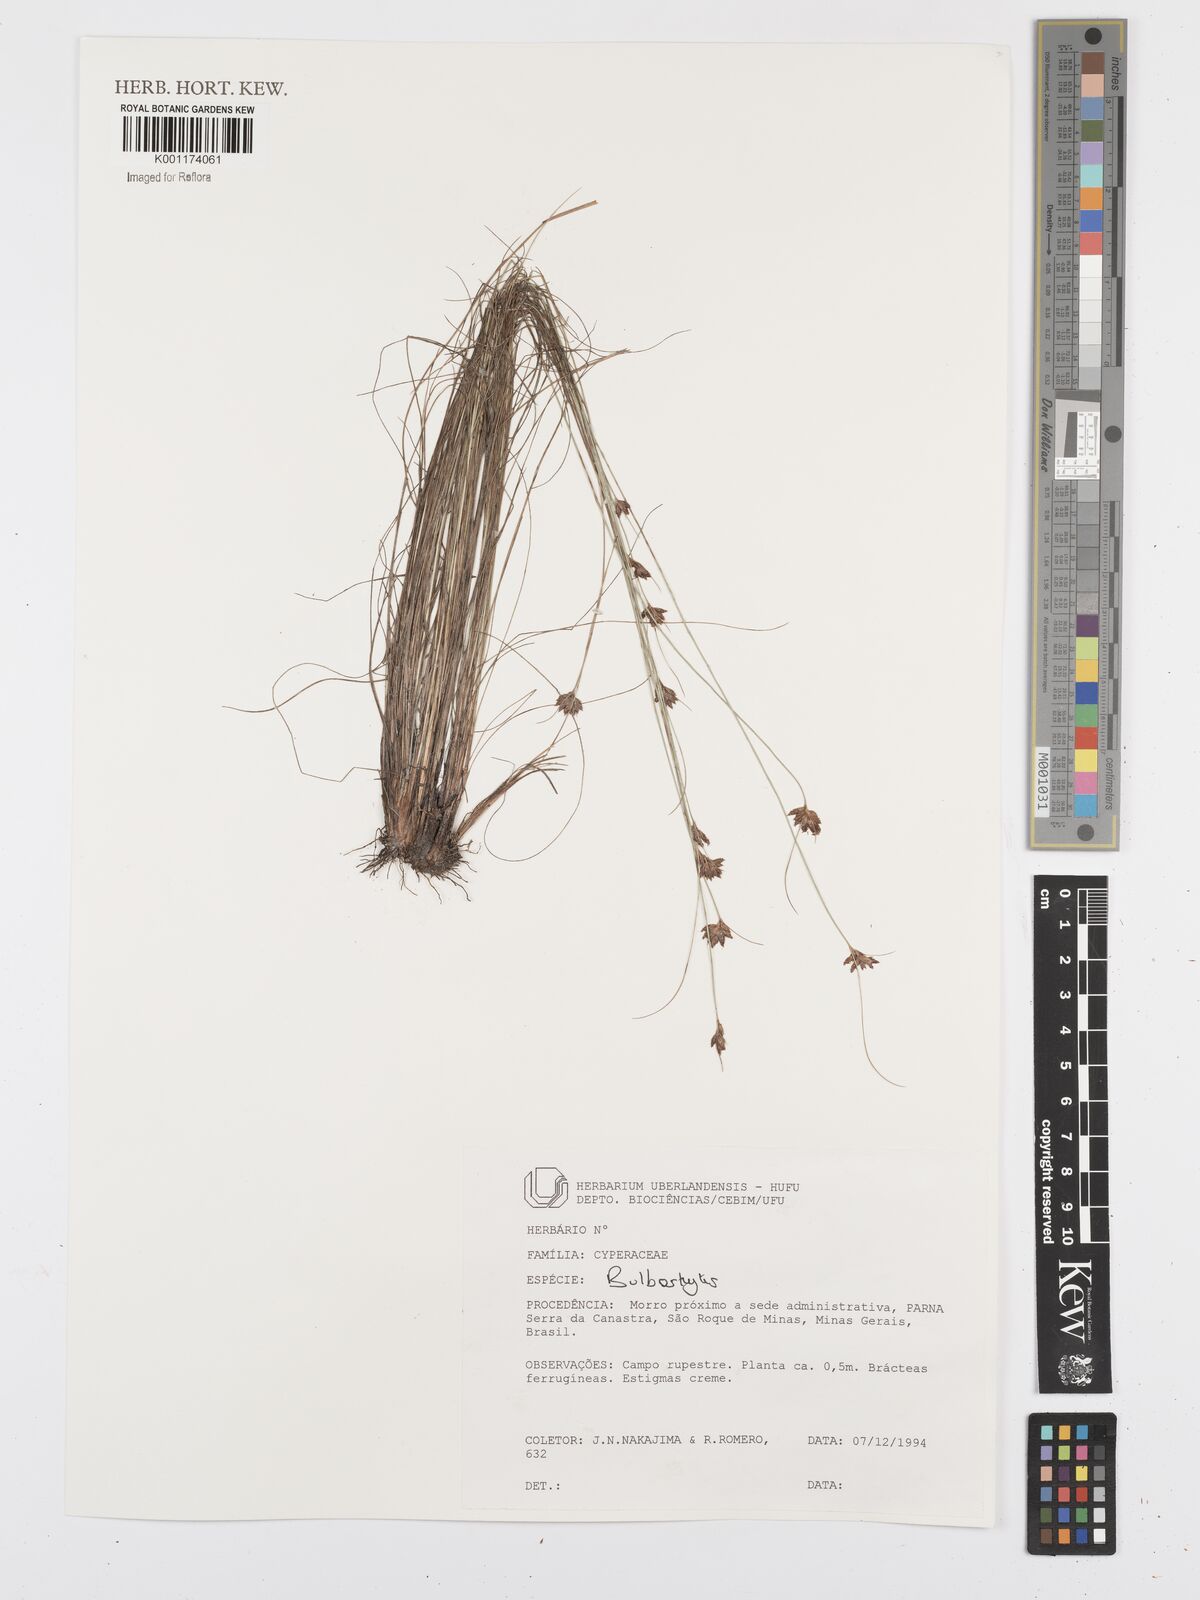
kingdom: Plantae
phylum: Tracheophyta
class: Liliopsida
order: Poales
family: Cyperaceae
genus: Bulbostylis
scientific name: Bulbostylis
